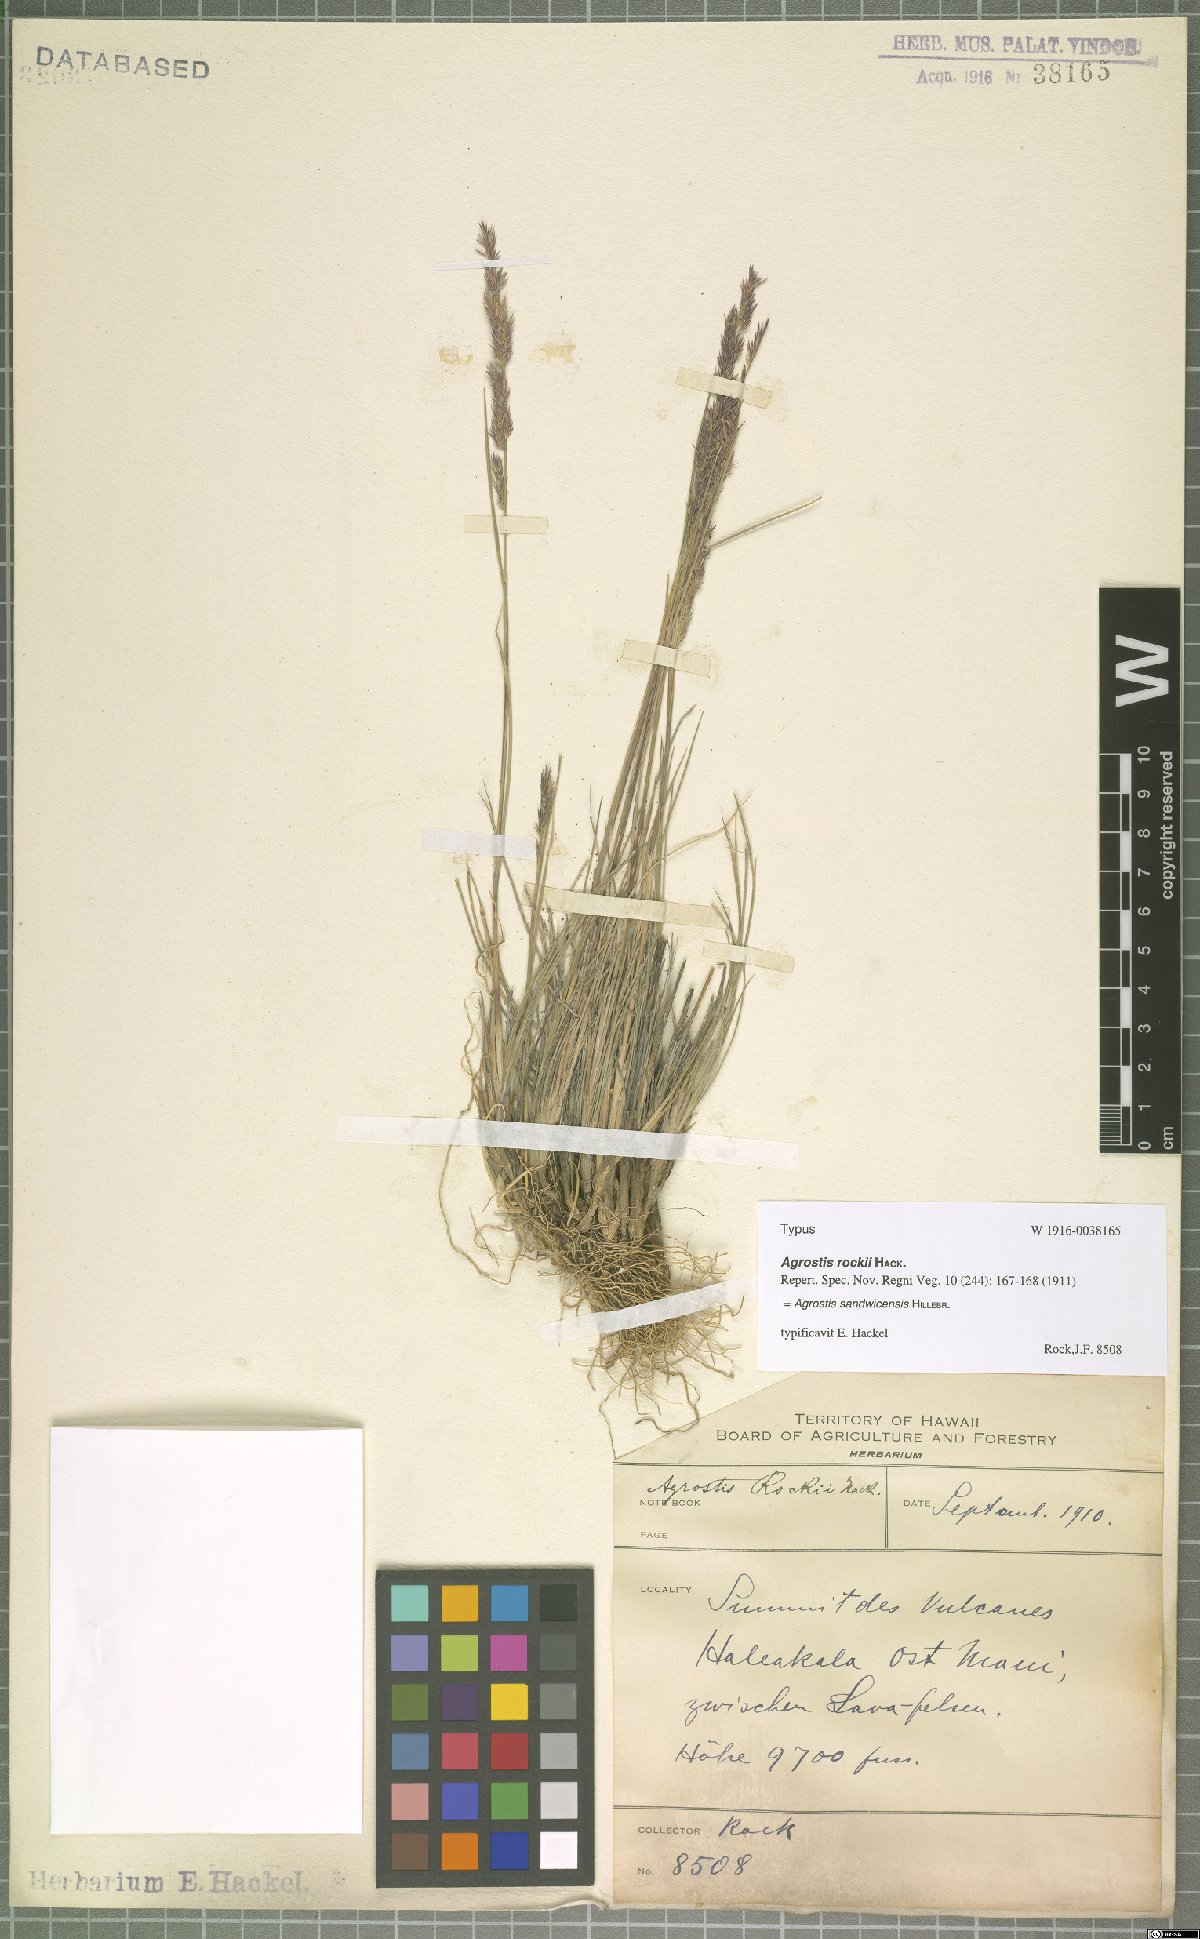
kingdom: Plantae
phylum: Tracheophyta
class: Liliopsida
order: Poales
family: Poaceae
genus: Agrostis
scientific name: Agrostis sandwicensis
